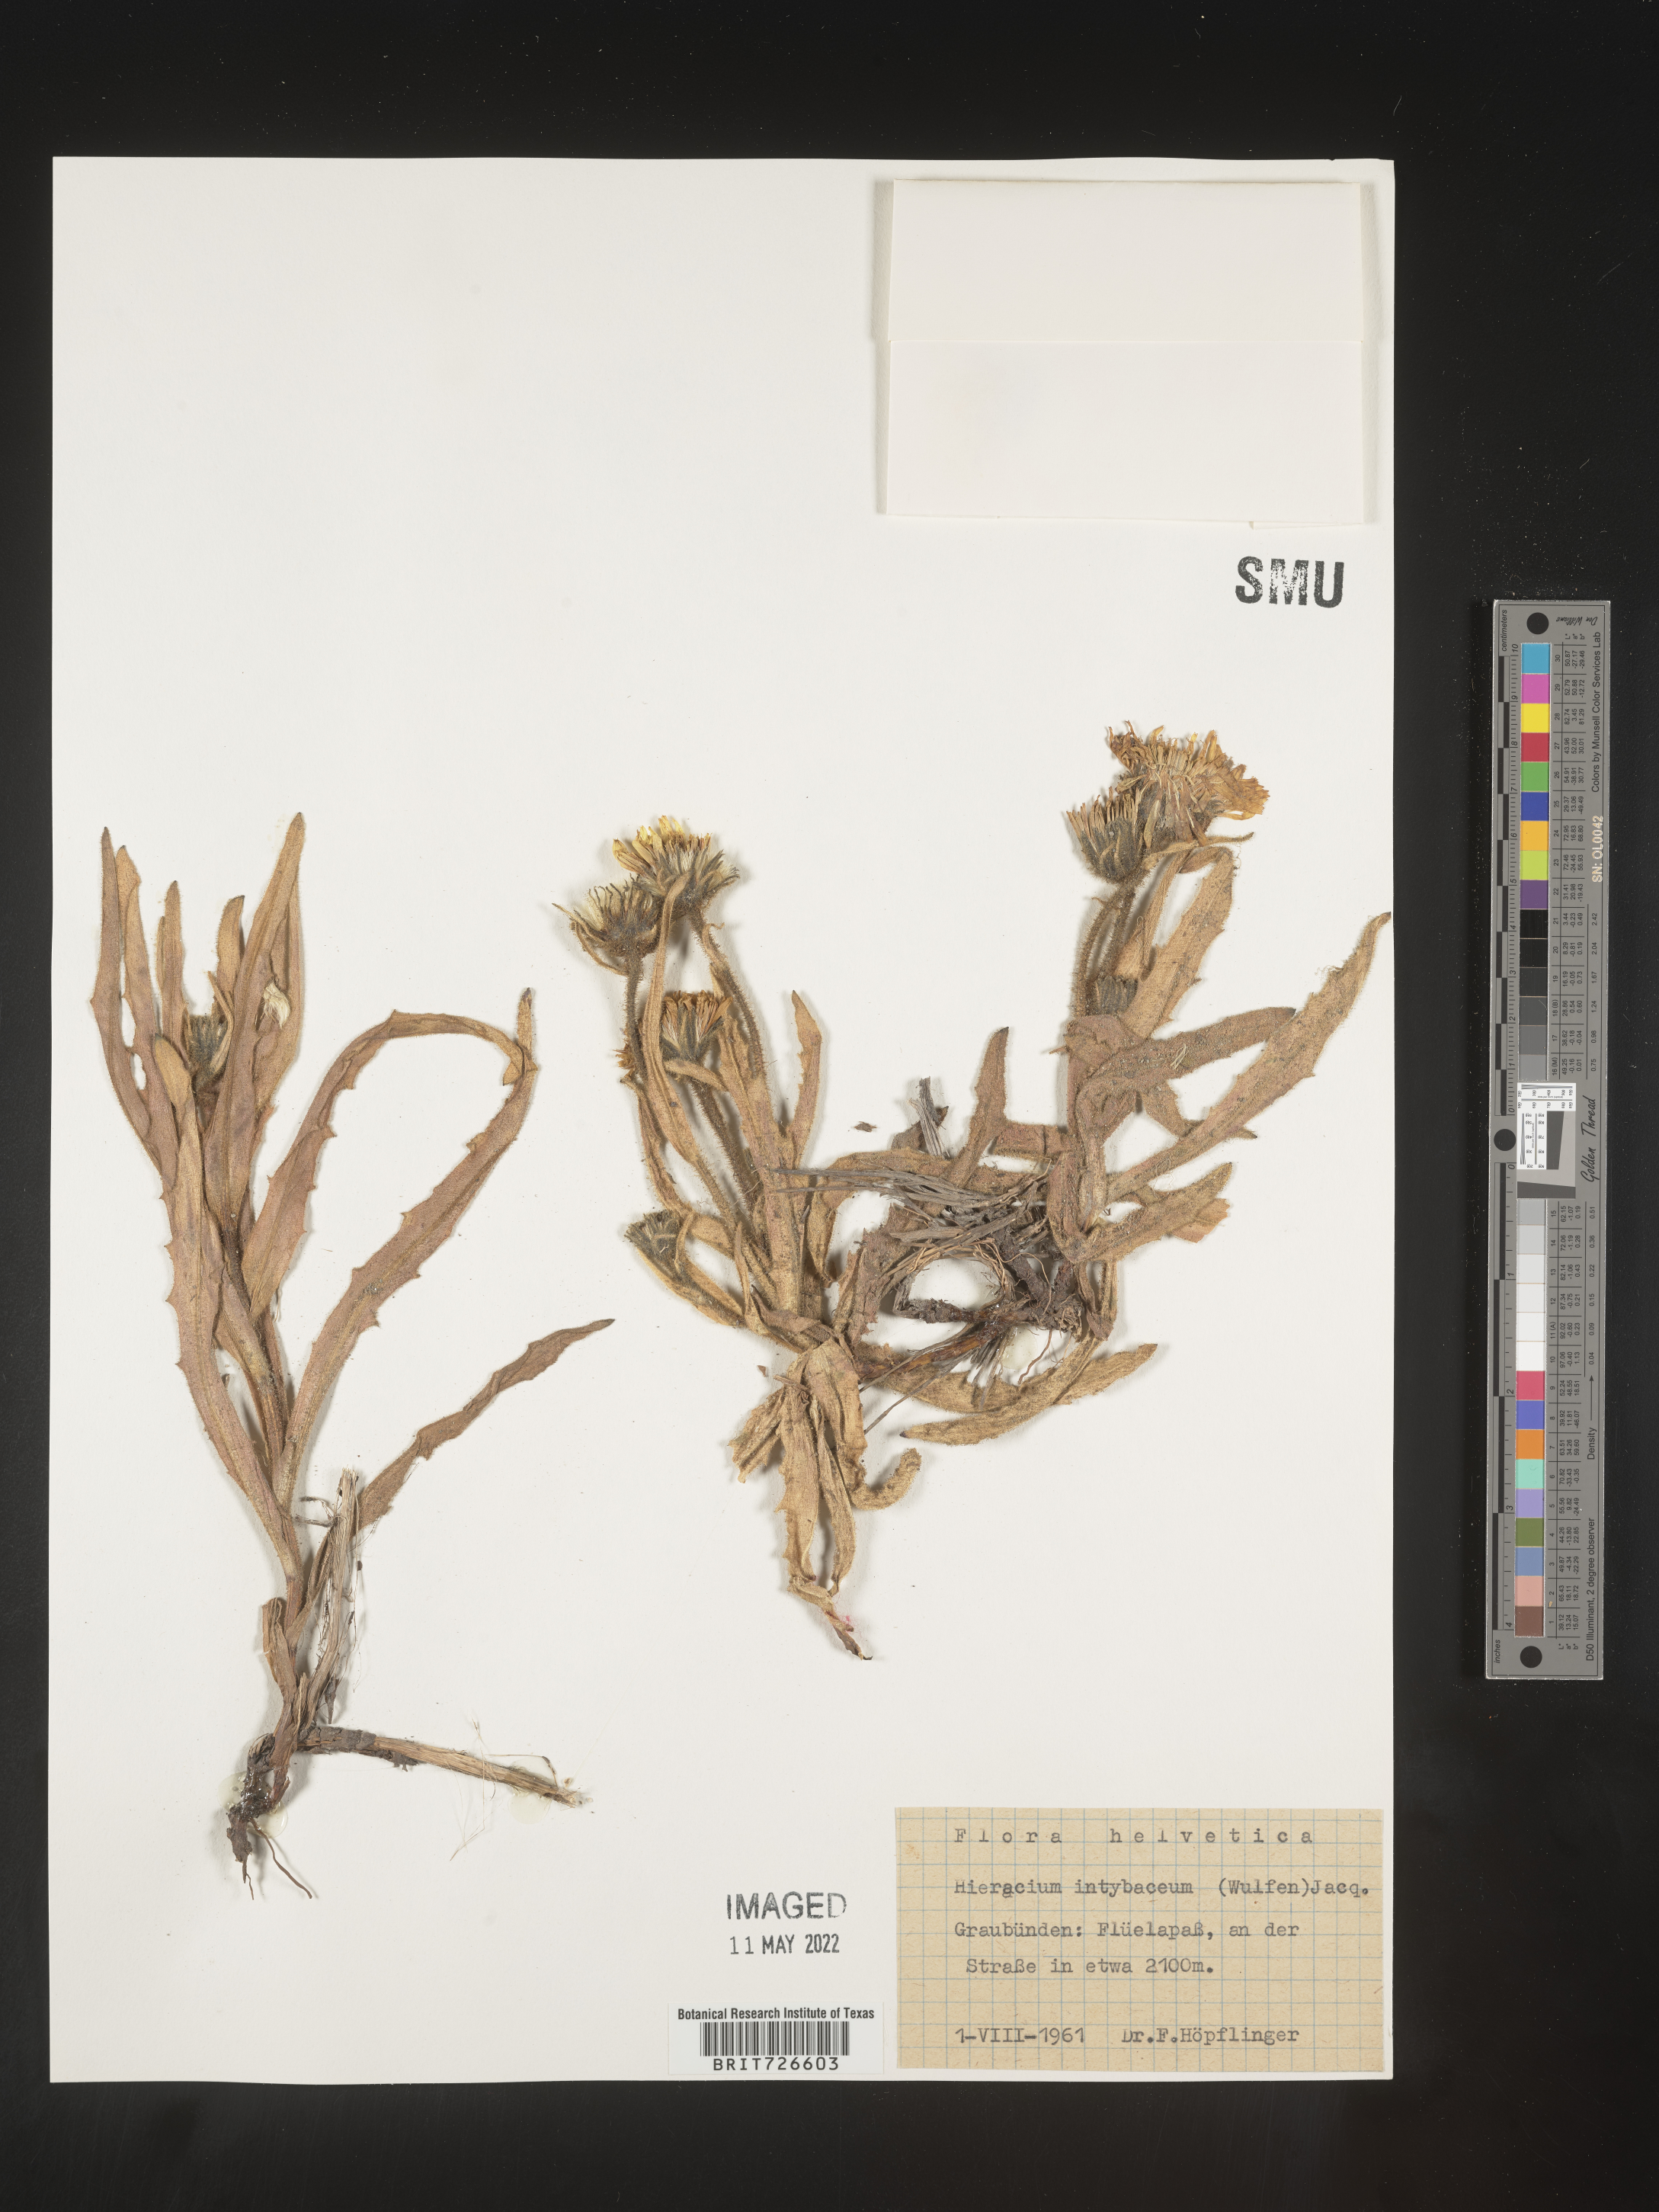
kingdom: Plantae
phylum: Tracheophyta
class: Magnoliopsida
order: Asterales
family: Asteraceae
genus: Hieracium
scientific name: Hieracium
